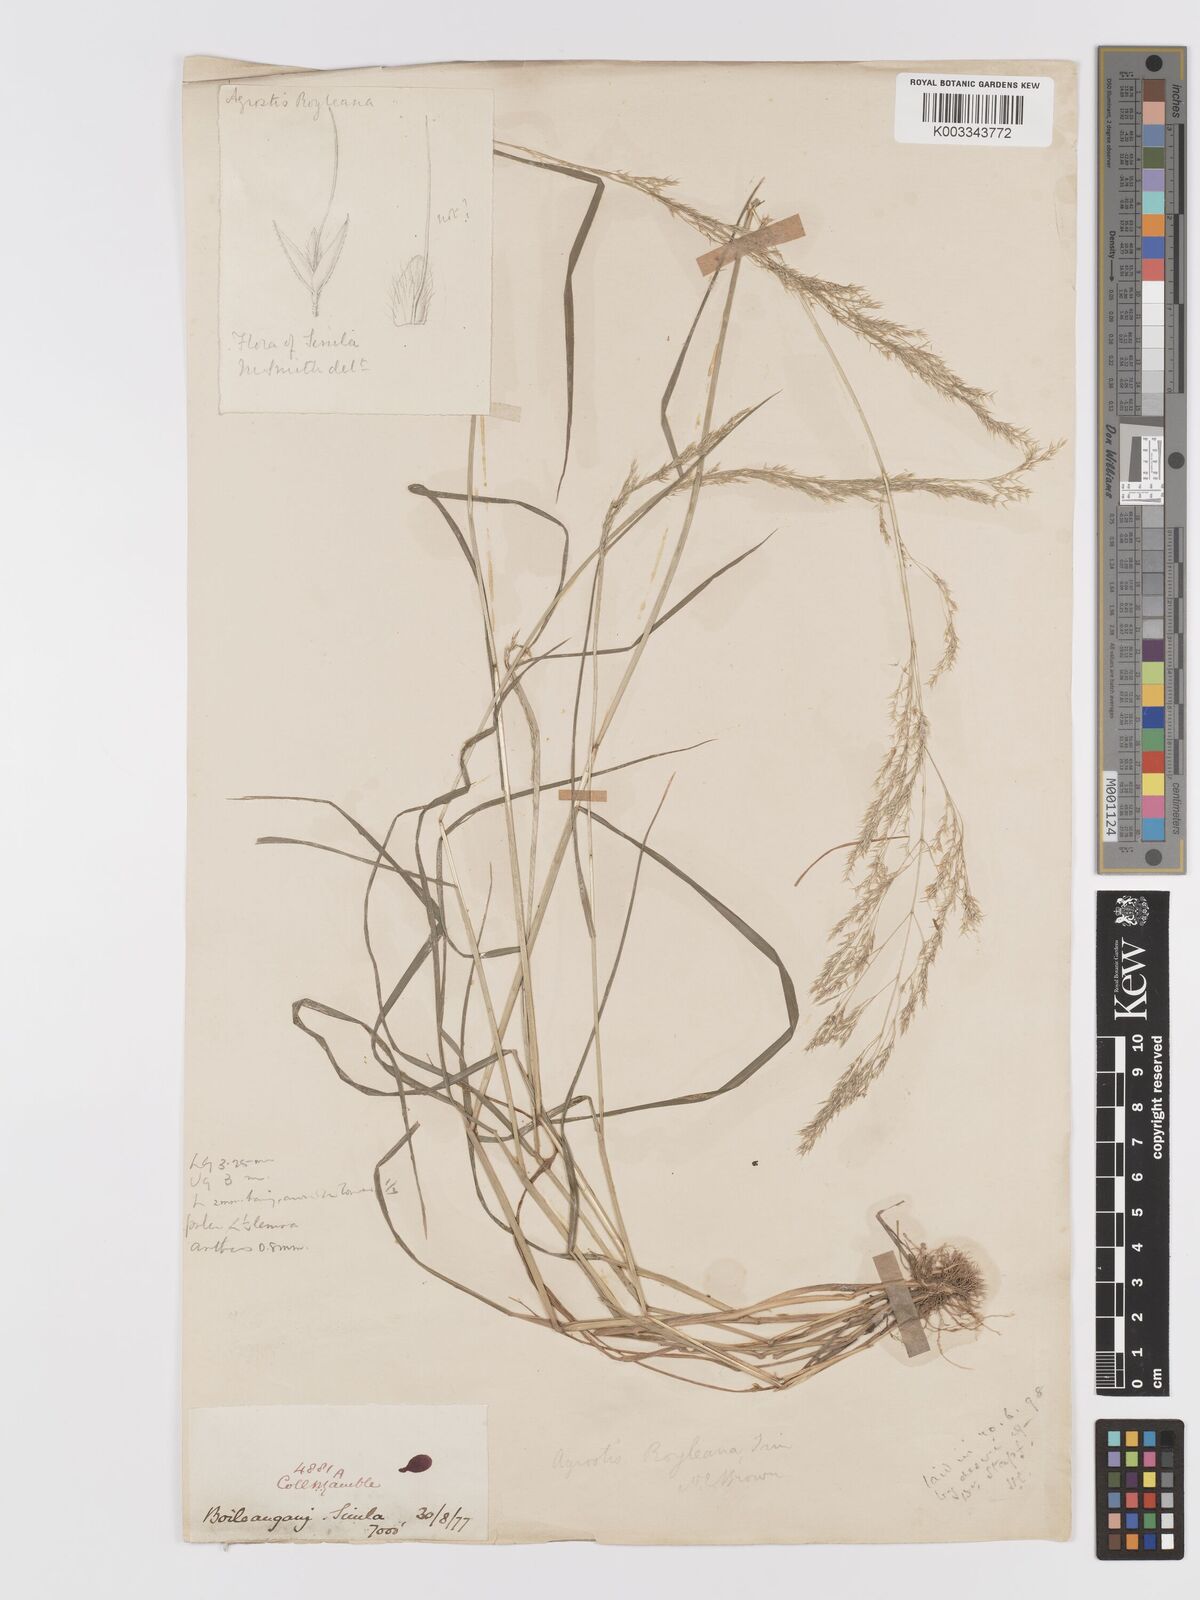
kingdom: Plantae
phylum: Tracheophyta
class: Liliopsida
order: Poales
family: Poaceae
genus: Agrostis
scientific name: Agrostis pilosula
